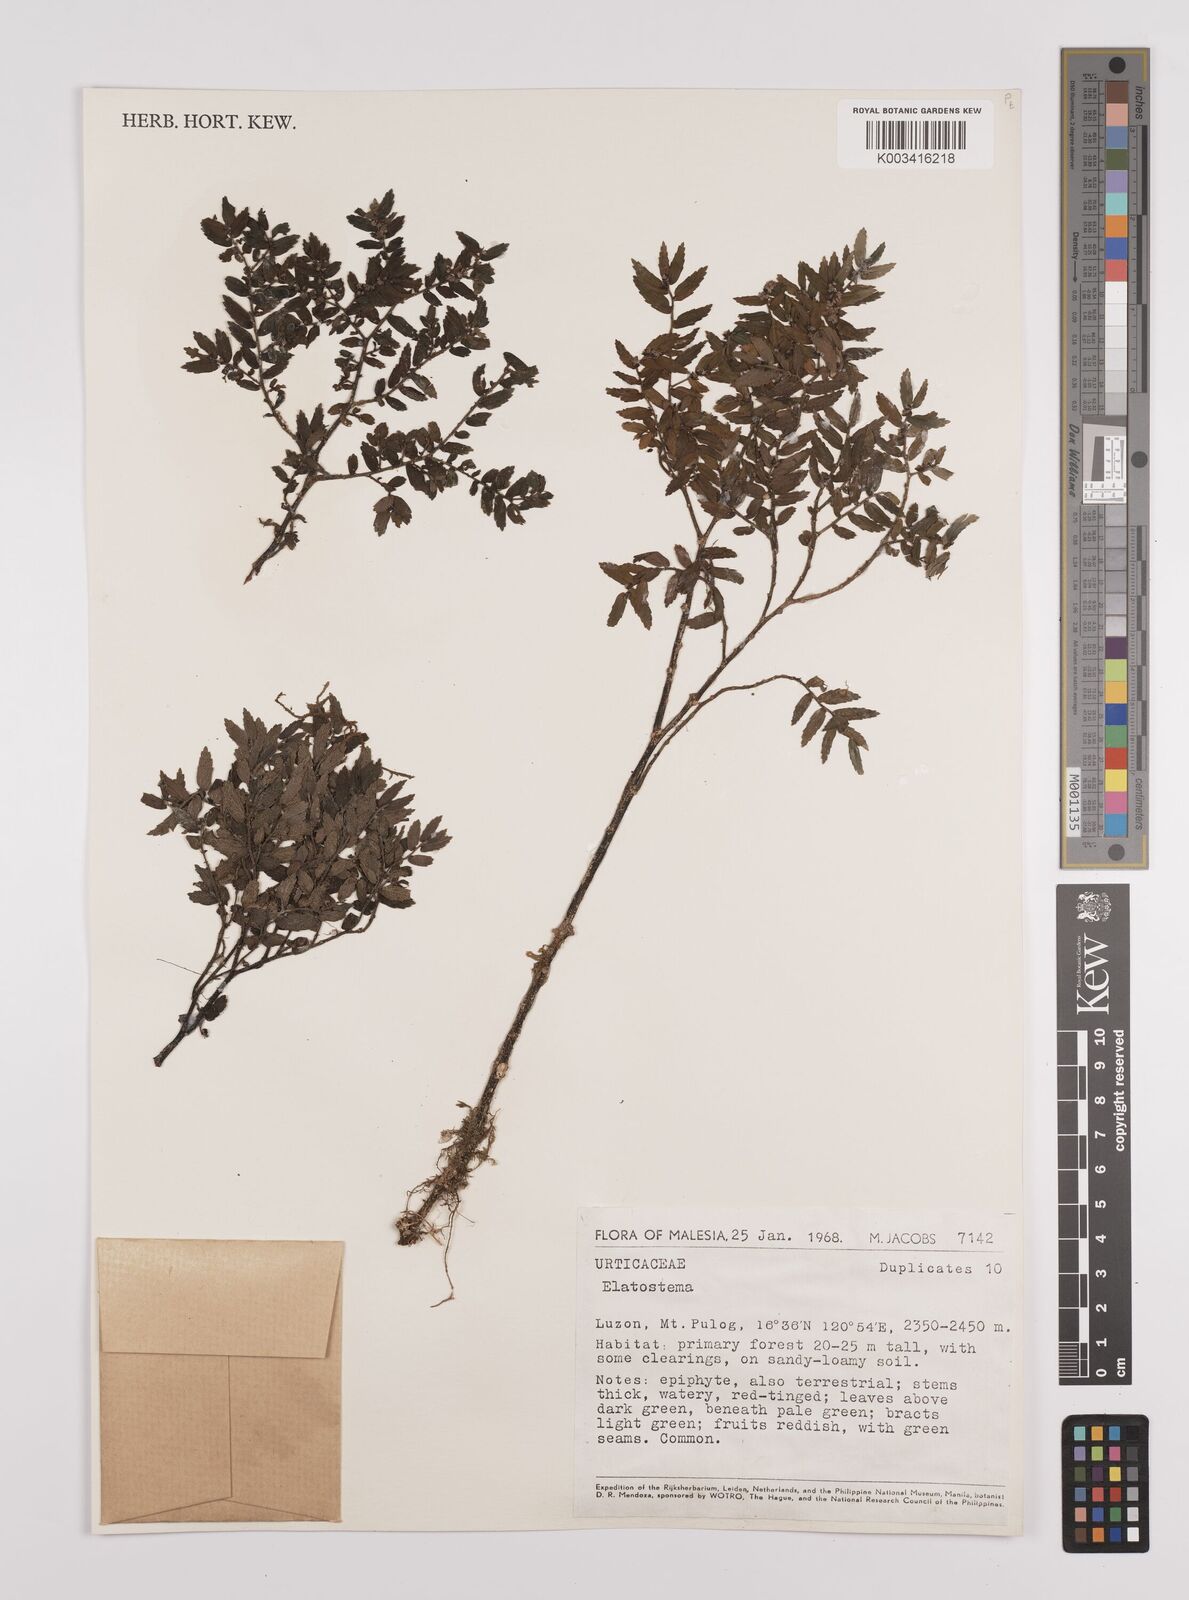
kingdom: Plantae
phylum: Tracheophyta
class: Magnoliopsida
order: Rosales
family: Urticaceae
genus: Elatostema
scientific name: Elatostema
